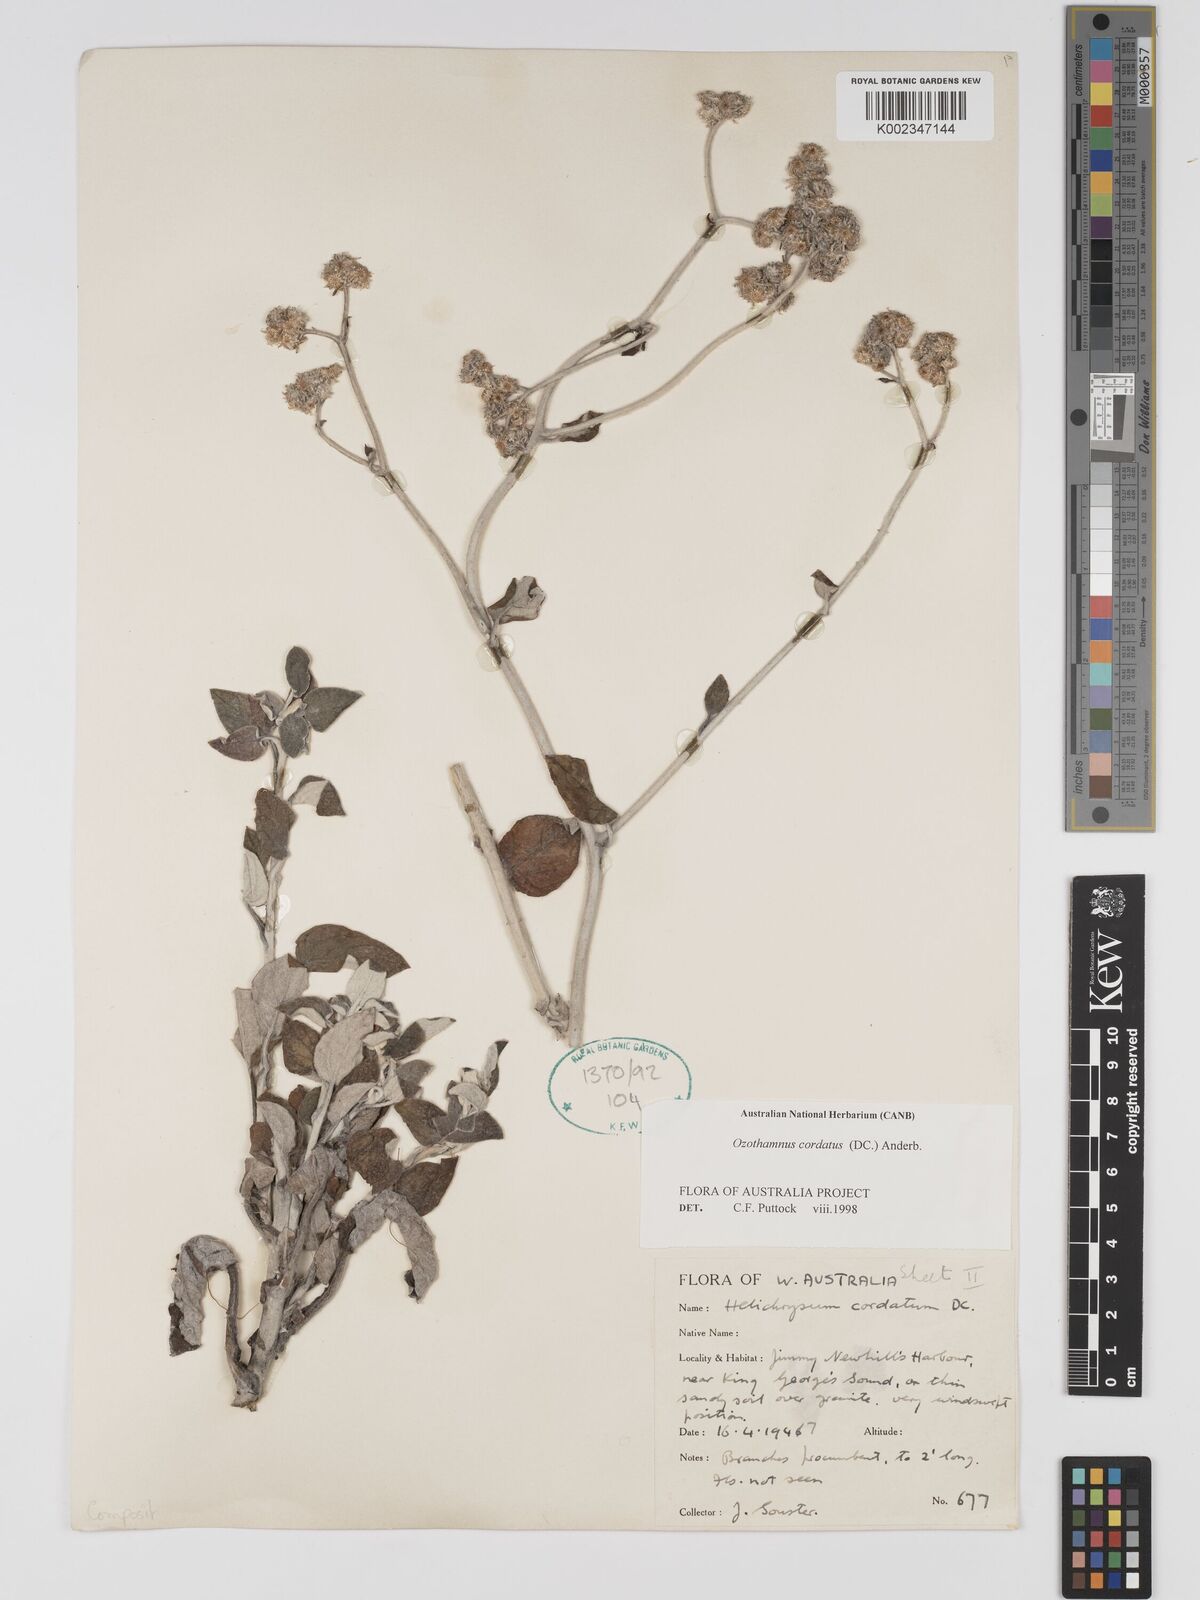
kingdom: Plantae
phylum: Tracheophyta
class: Magnoliopsida
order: Asterales
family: Asteraceae
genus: Ozothamnus
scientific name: Ozothamnus
